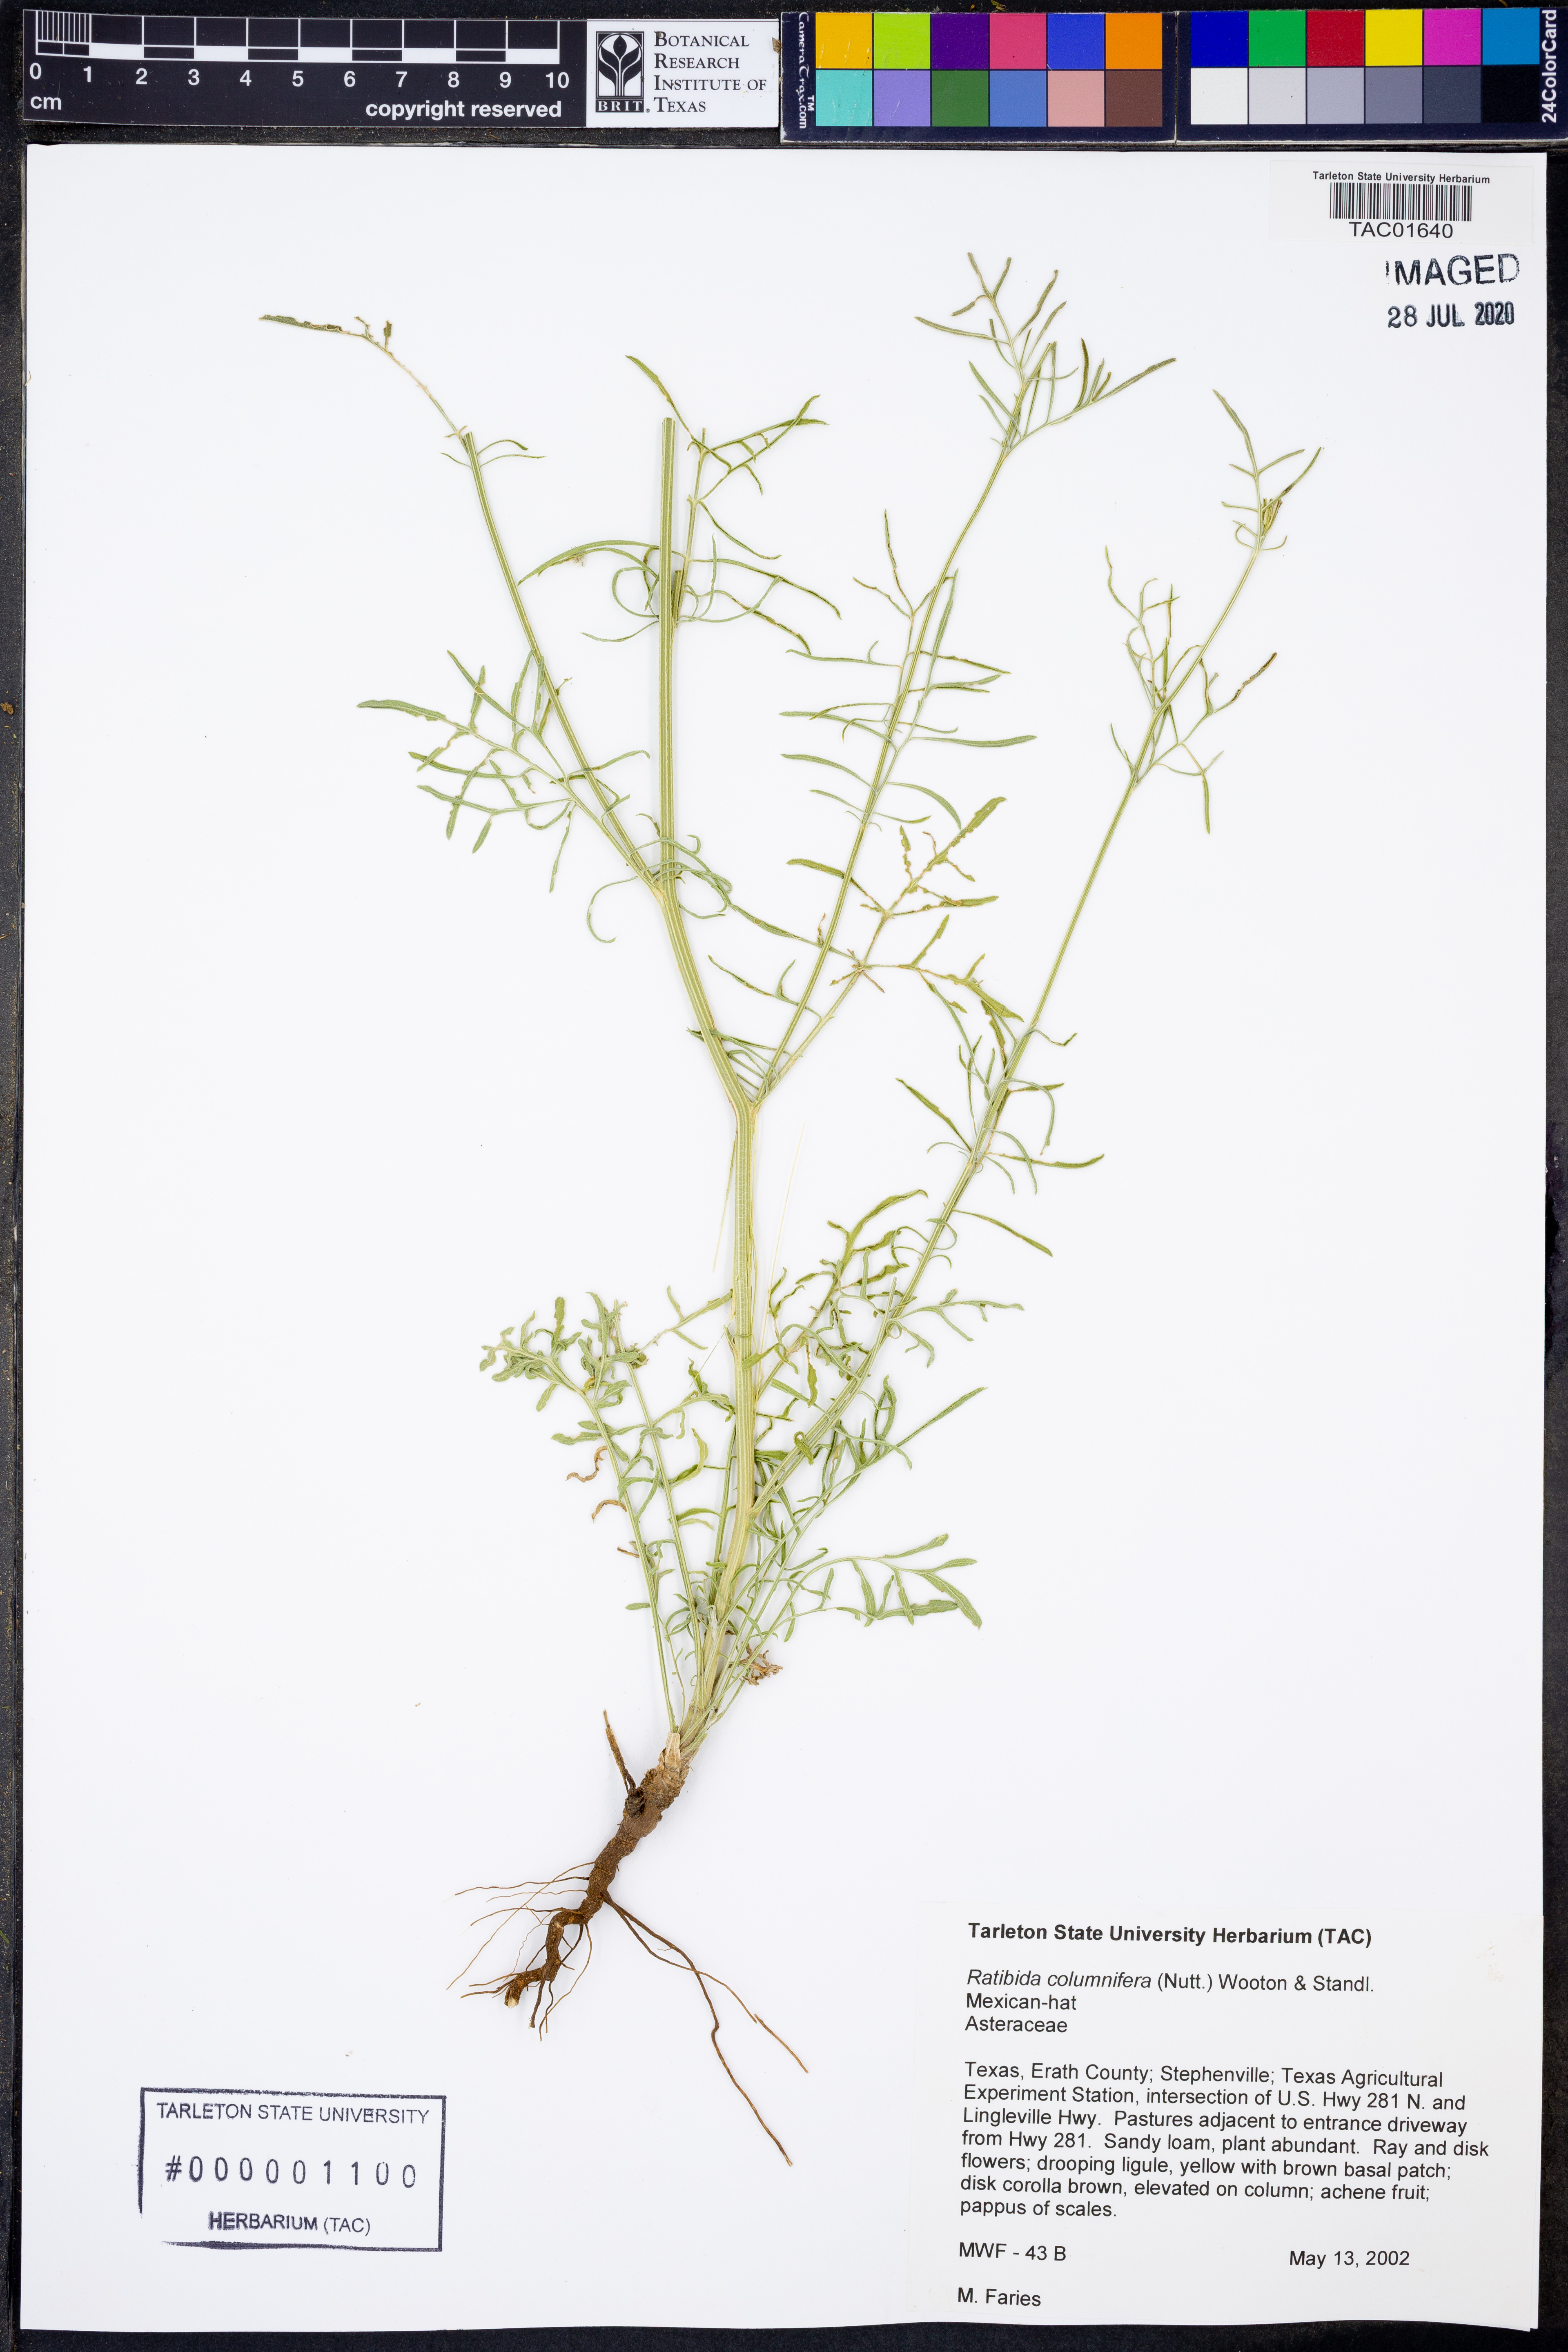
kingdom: Plantae
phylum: Tracheophyta
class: Magnoliopsida
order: Asterales
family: Asteraceae
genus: Ratibida
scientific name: Ratibida columnifera
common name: Prairie coneflower
